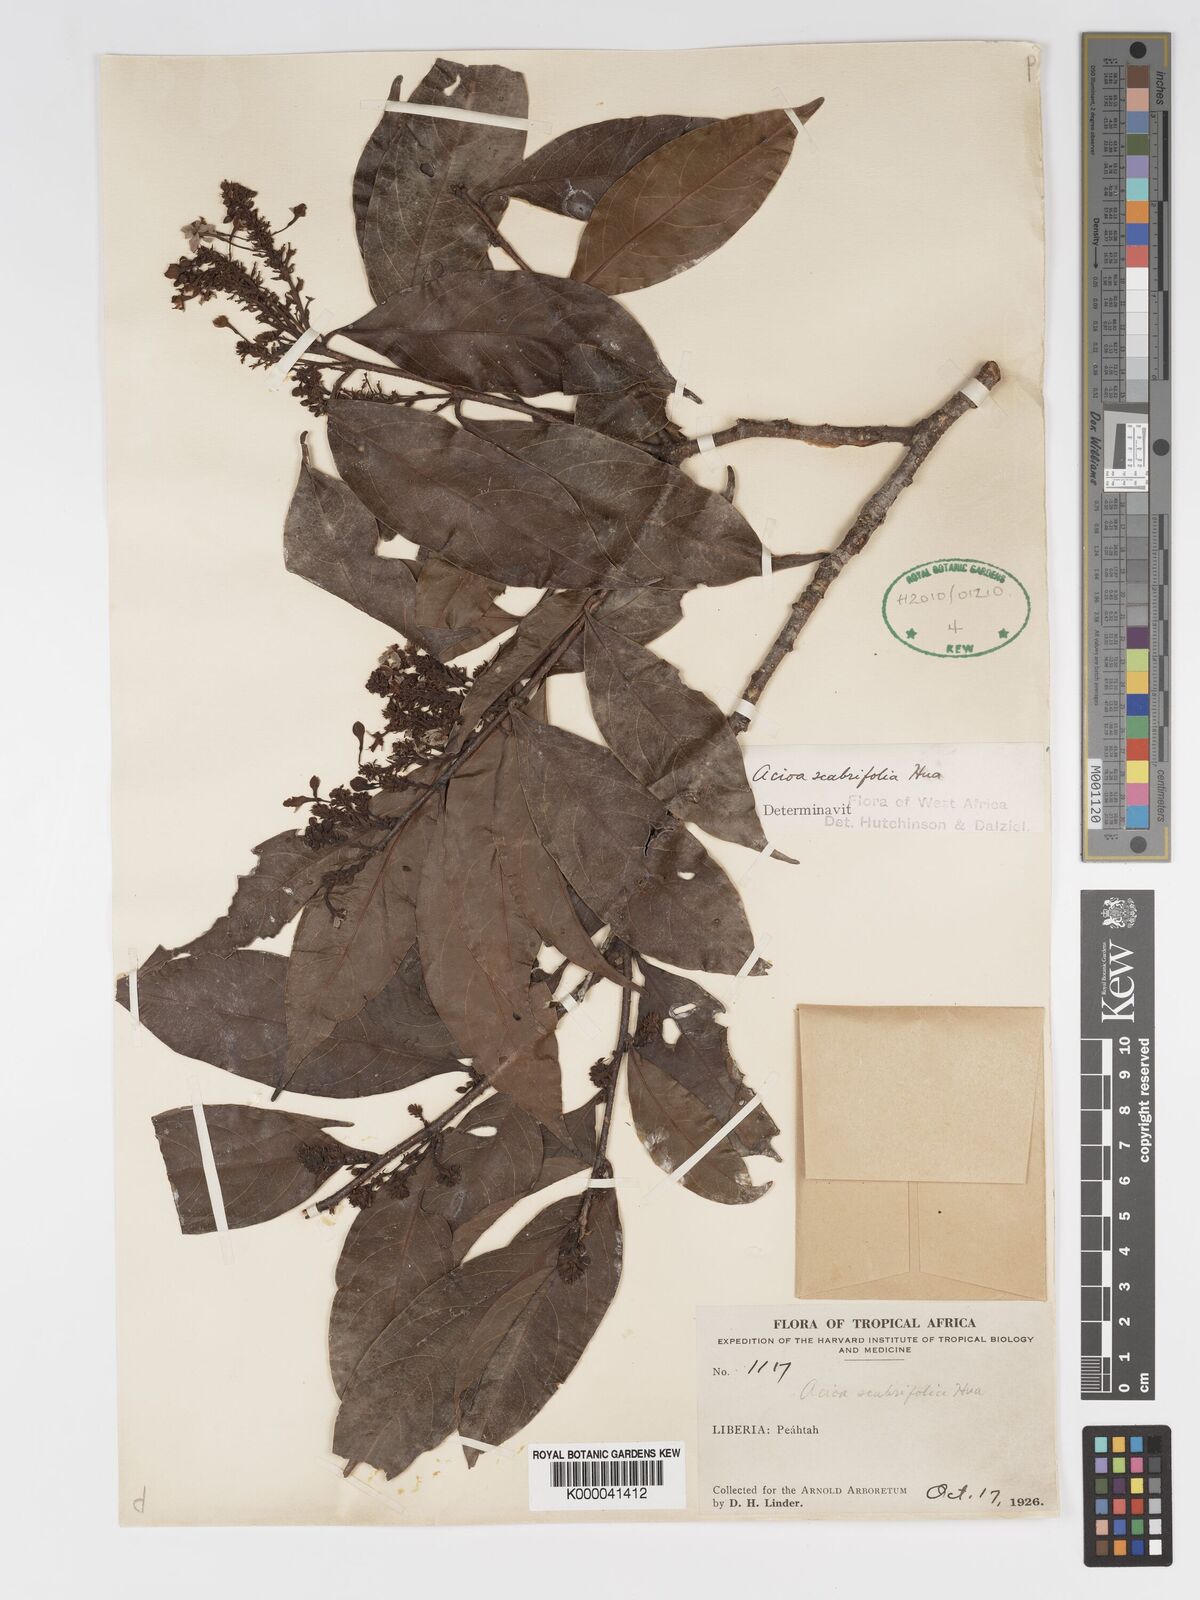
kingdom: Plantae
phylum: Tracheophyta
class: Magnoliopsida
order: Malpighiales
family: Chrysobalanaceae
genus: Dactyladenia
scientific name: Dactyladenia scabrifolia
